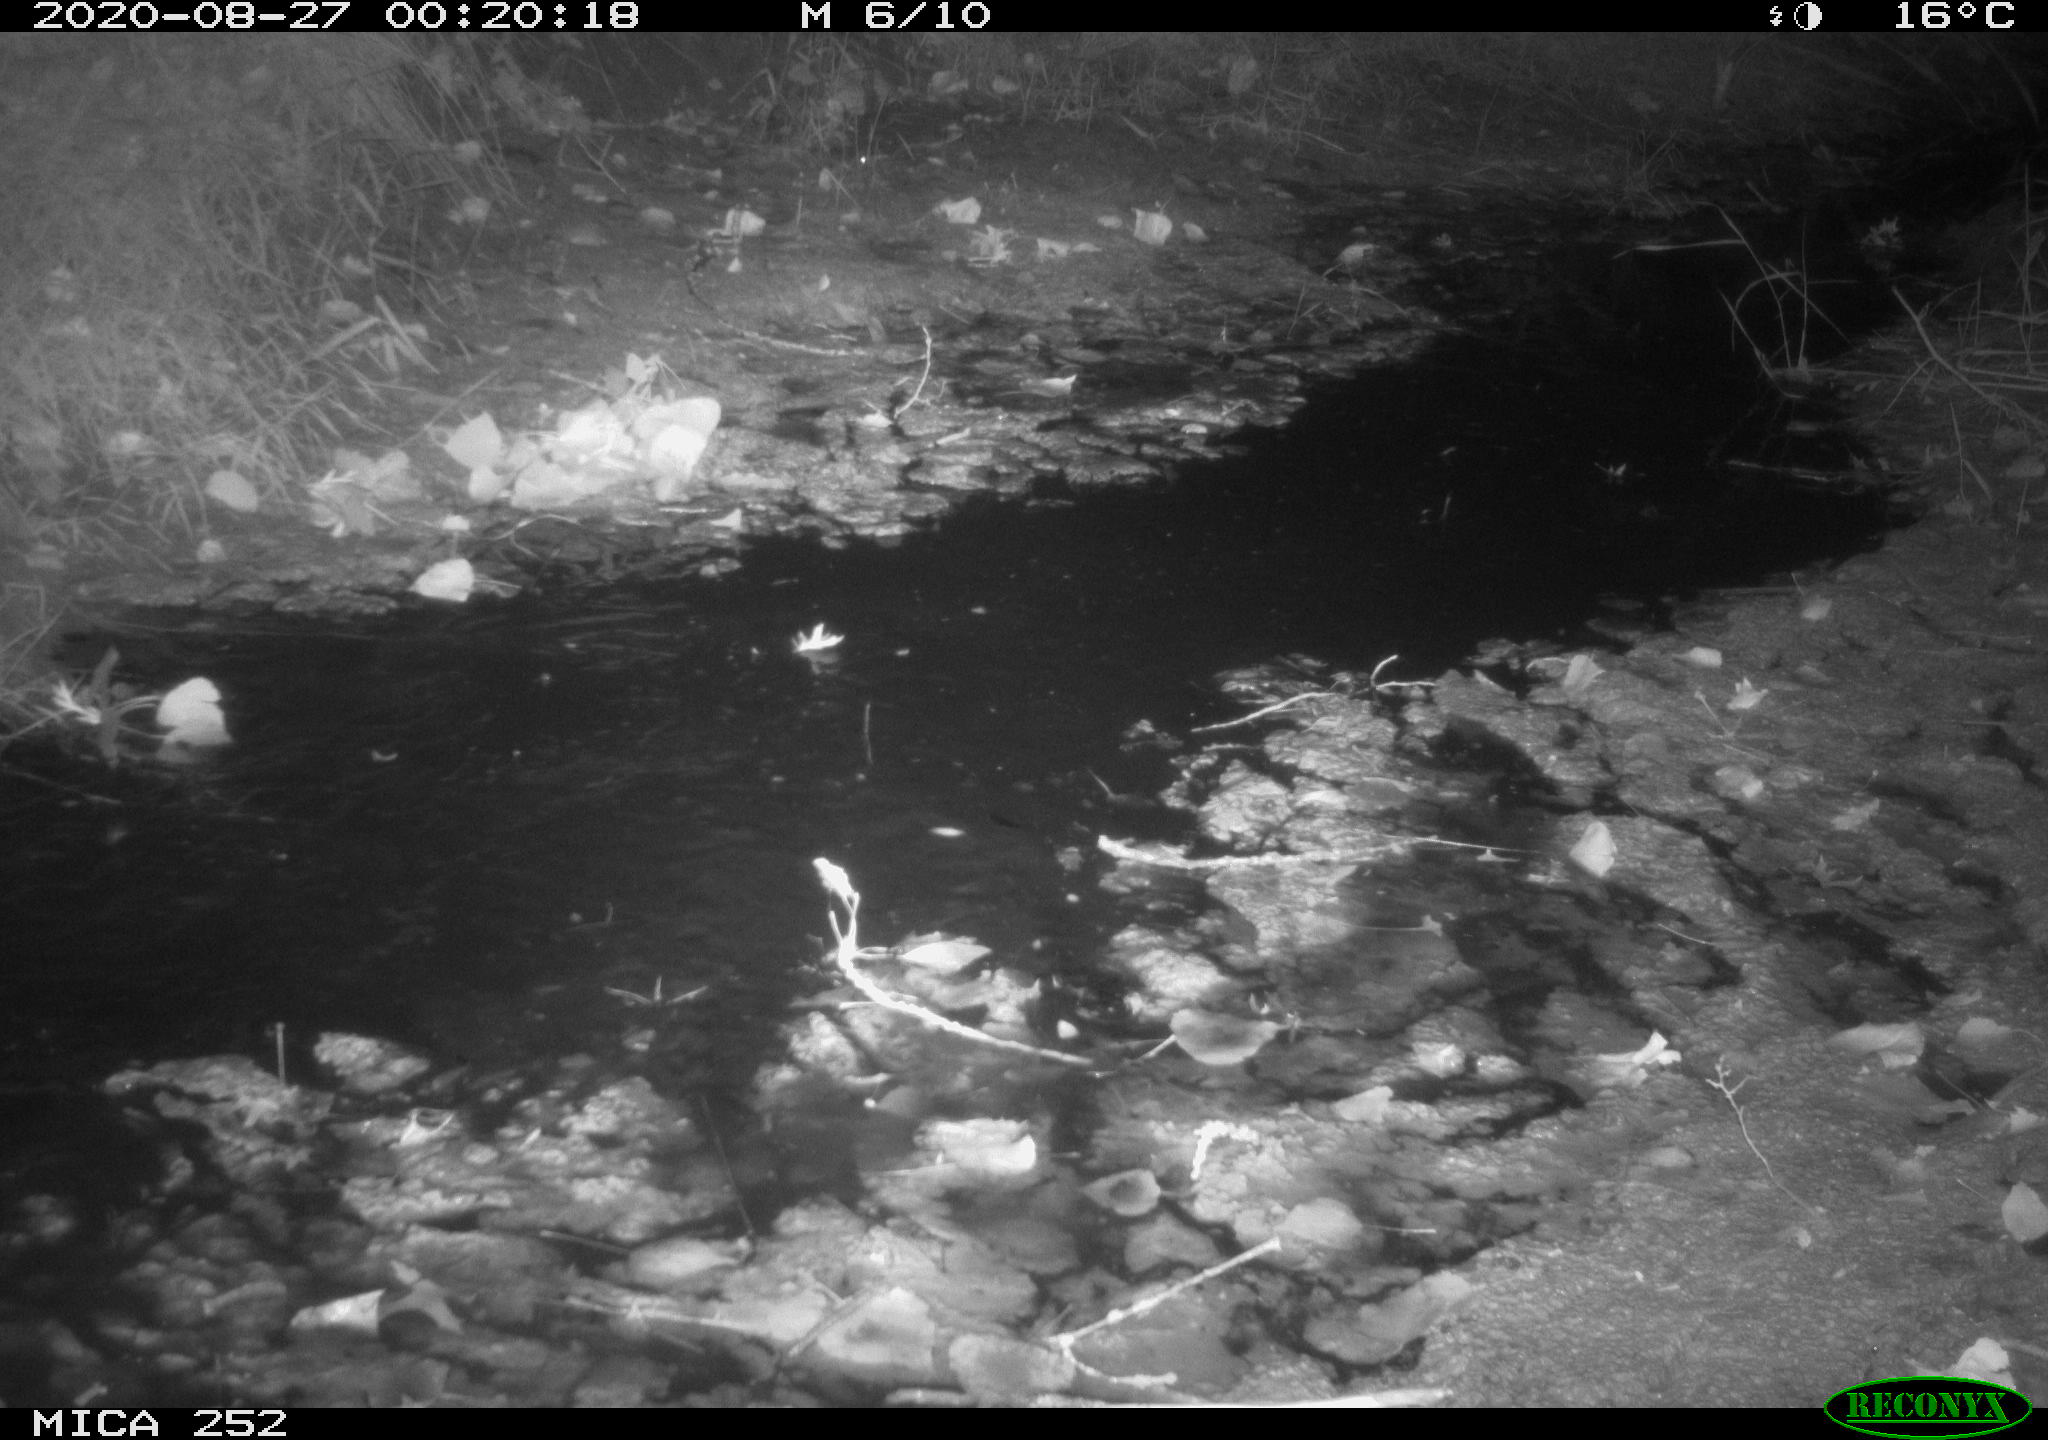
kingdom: Animalia
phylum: Chordata
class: Mammalia
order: Rodentia
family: Castoridae
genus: Castor
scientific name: Castor fiber
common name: Eurasian beaver
